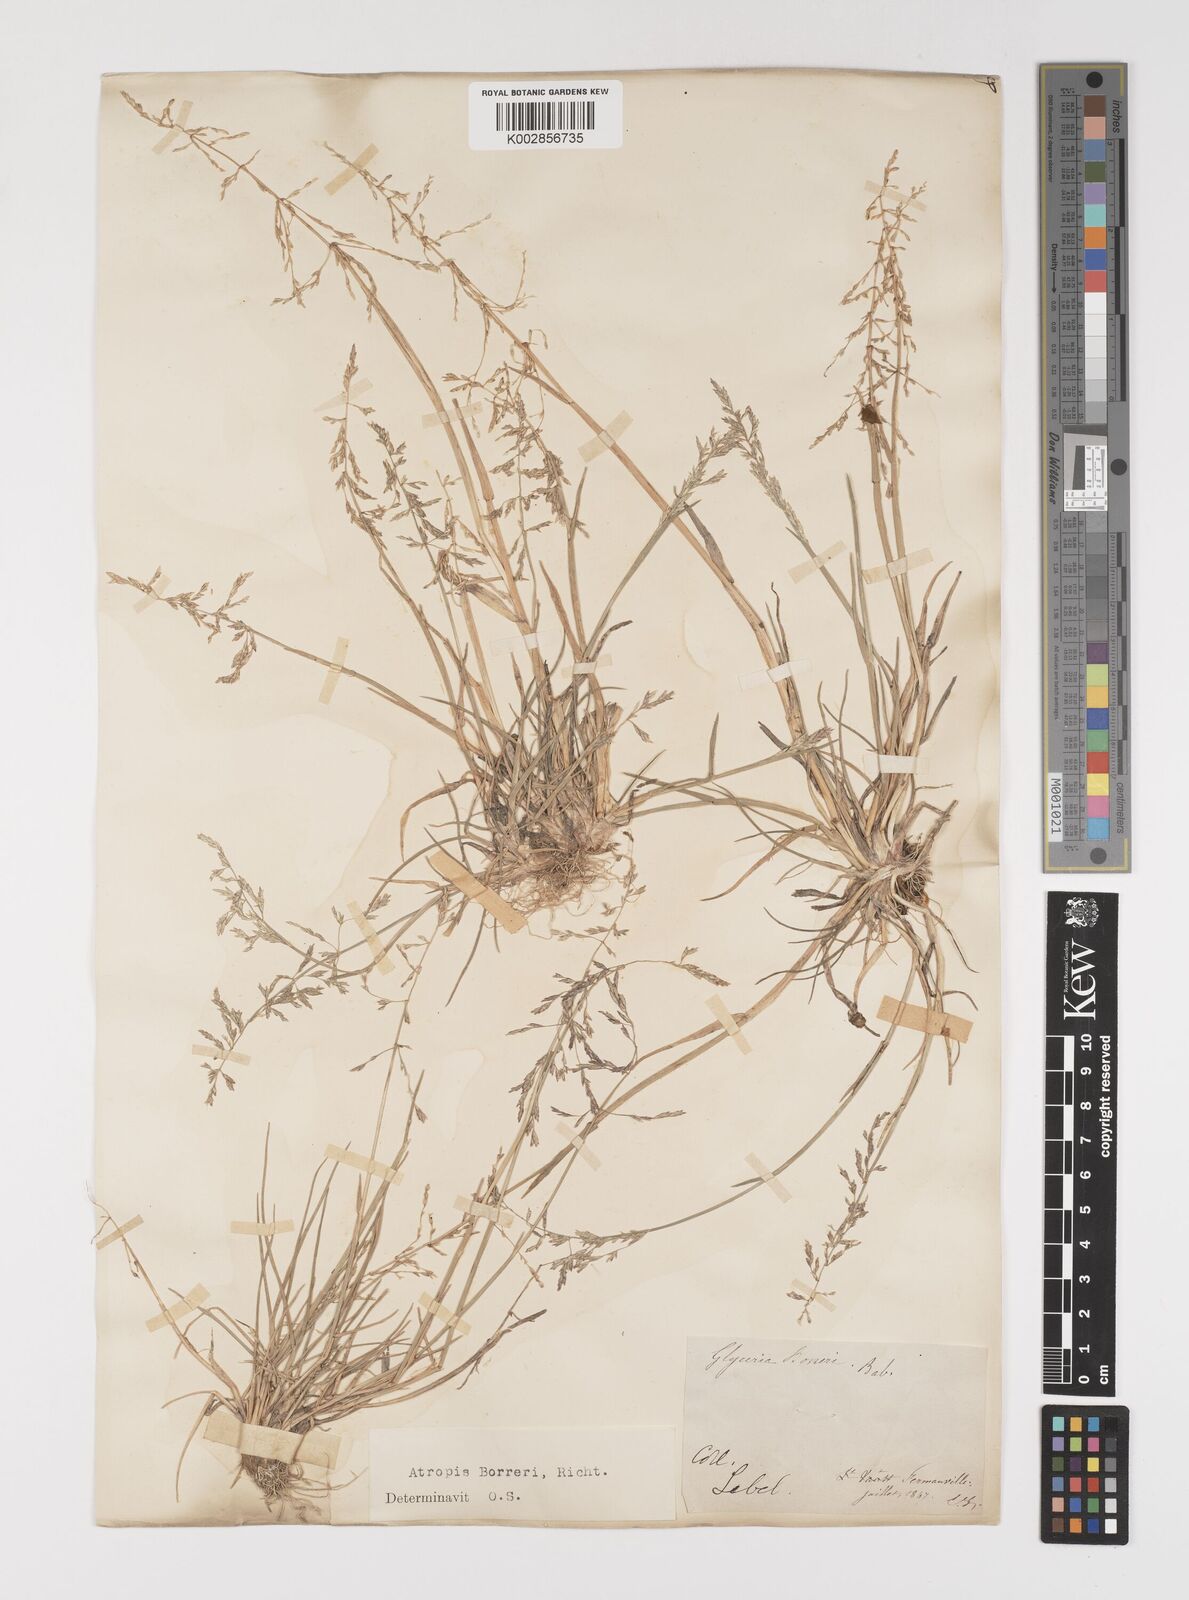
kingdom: Plantae
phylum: Tracheophyta
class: Liliopsida
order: Poales
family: Poaceae
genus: Puccinellia
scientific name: Puccinellia
